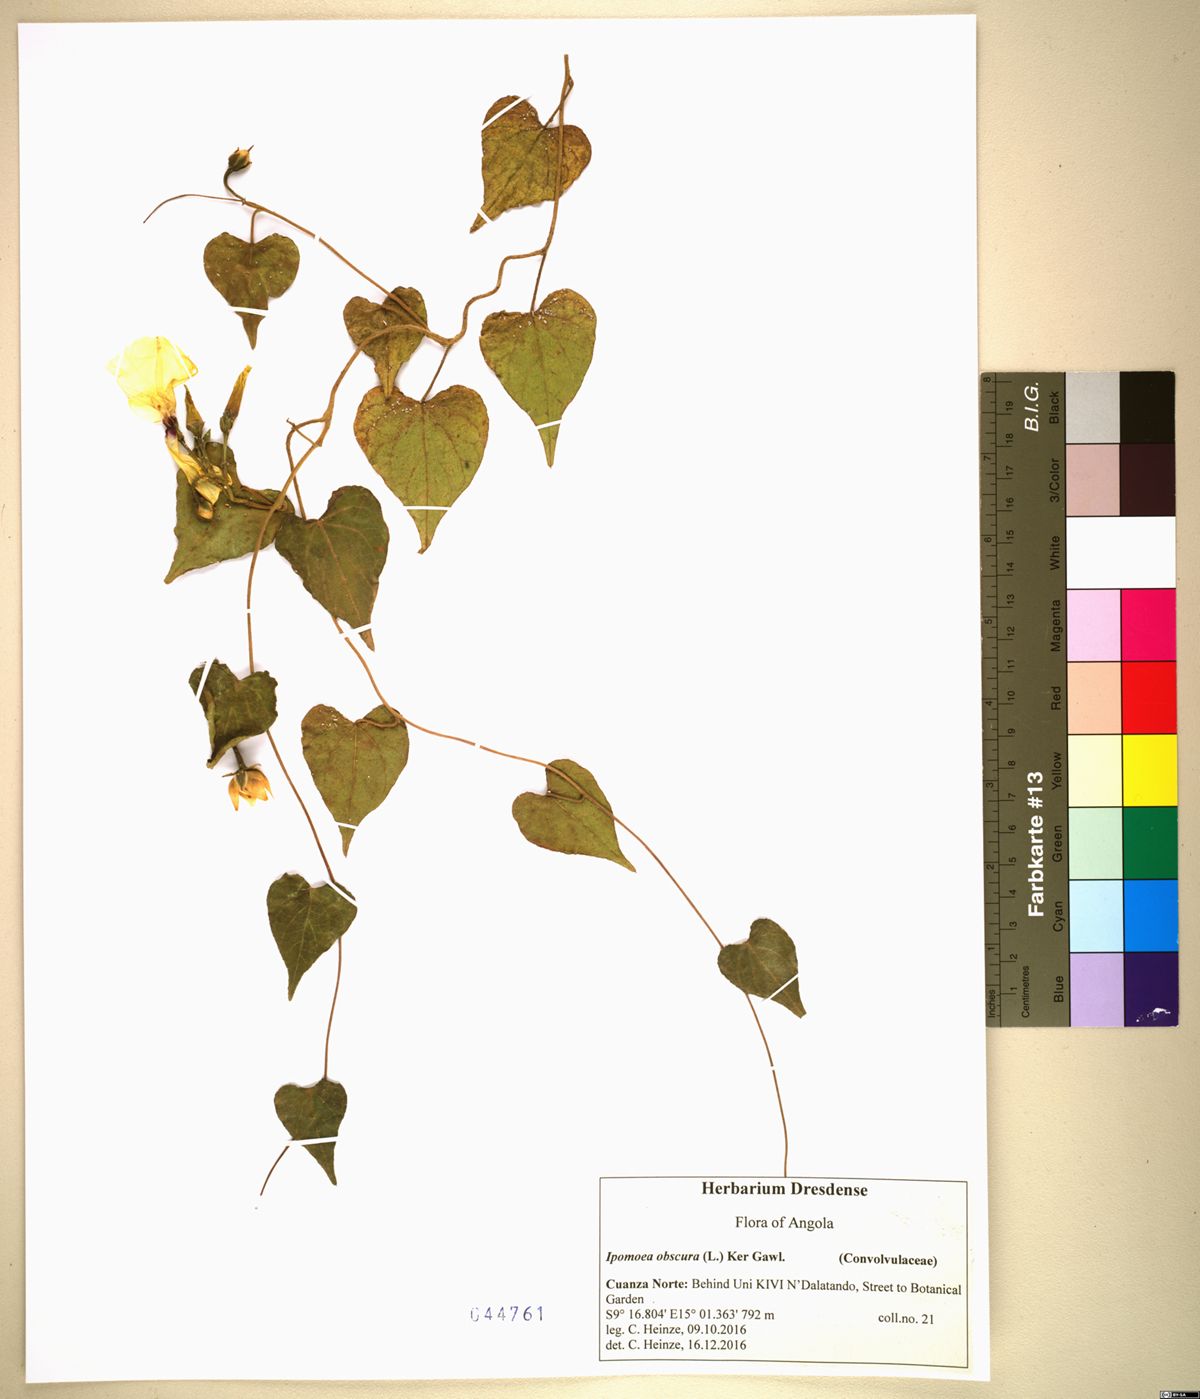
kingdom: Plantae
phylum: Tracheophyta
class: Magnoliopsida
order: Solanales
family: Convolvulaceae
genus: Ipomoea
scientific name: Ipomoea obscura
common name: Obscure morning-glory
